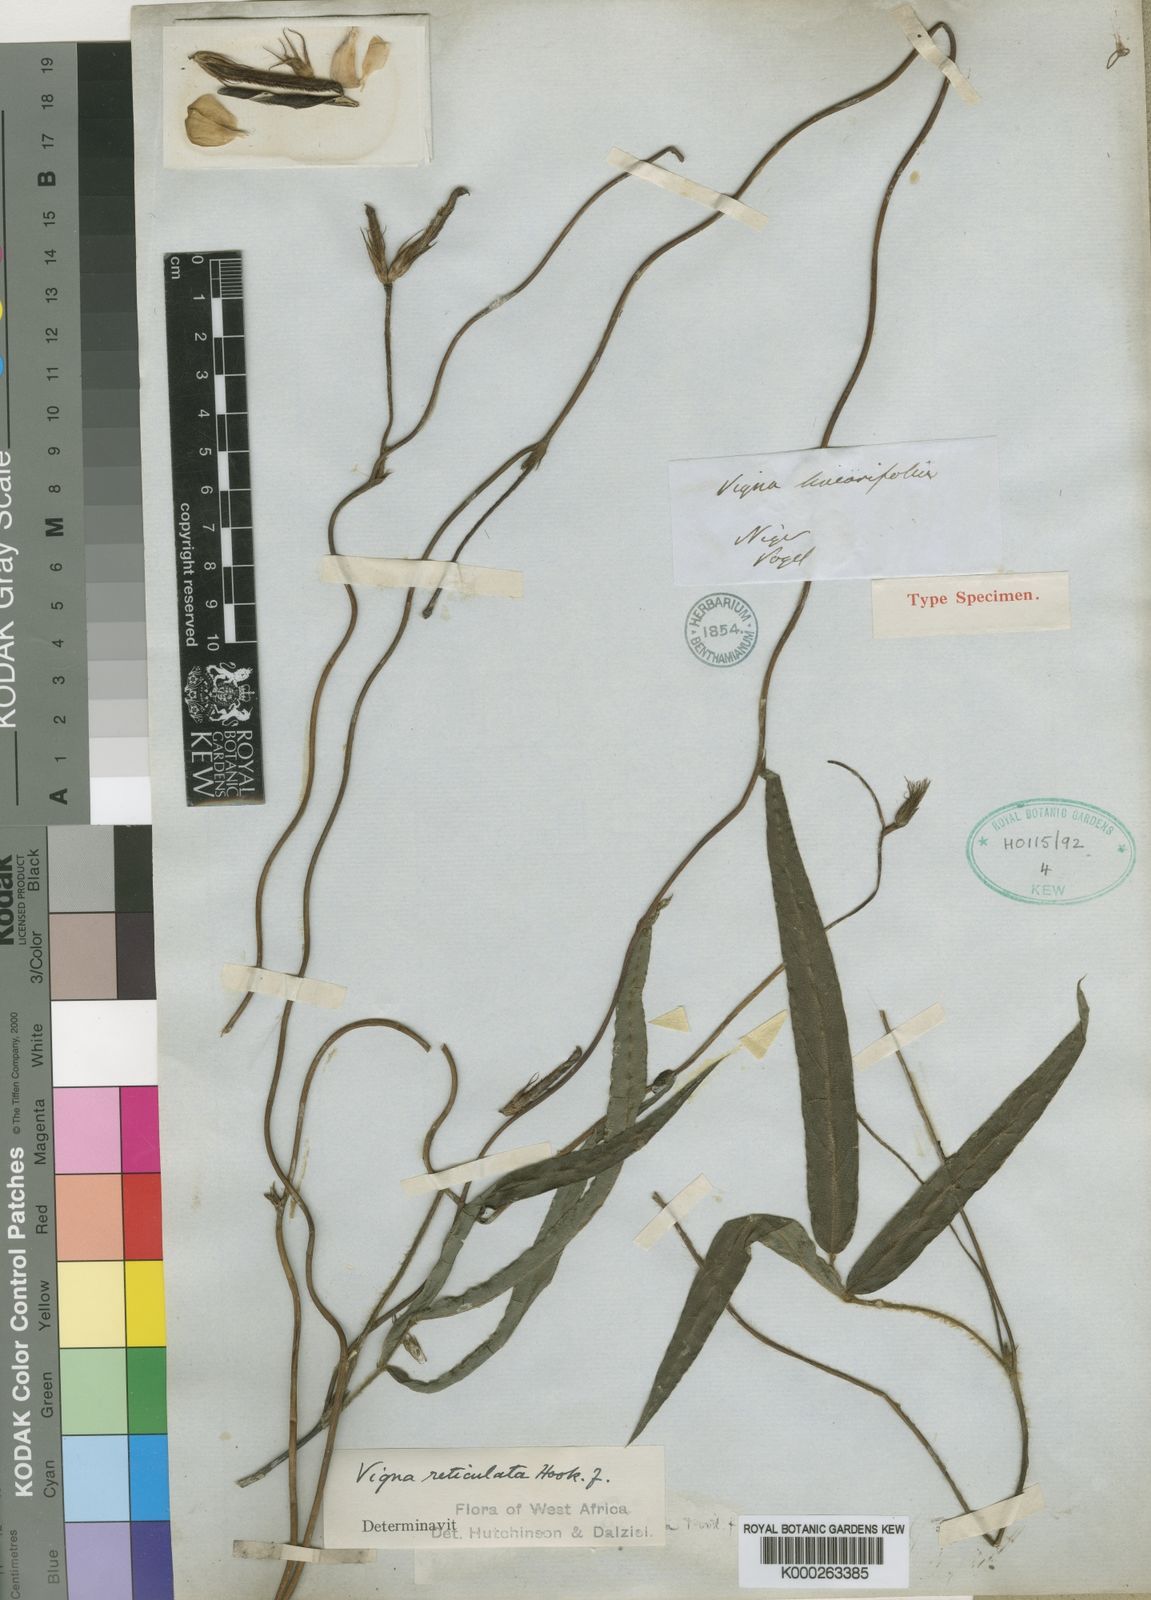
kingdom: Plantae
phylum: Tracheophyta
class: Magnoliopsida
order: Fabales
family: Fabaceae
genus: Vigna
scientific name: Vigna reticulata
